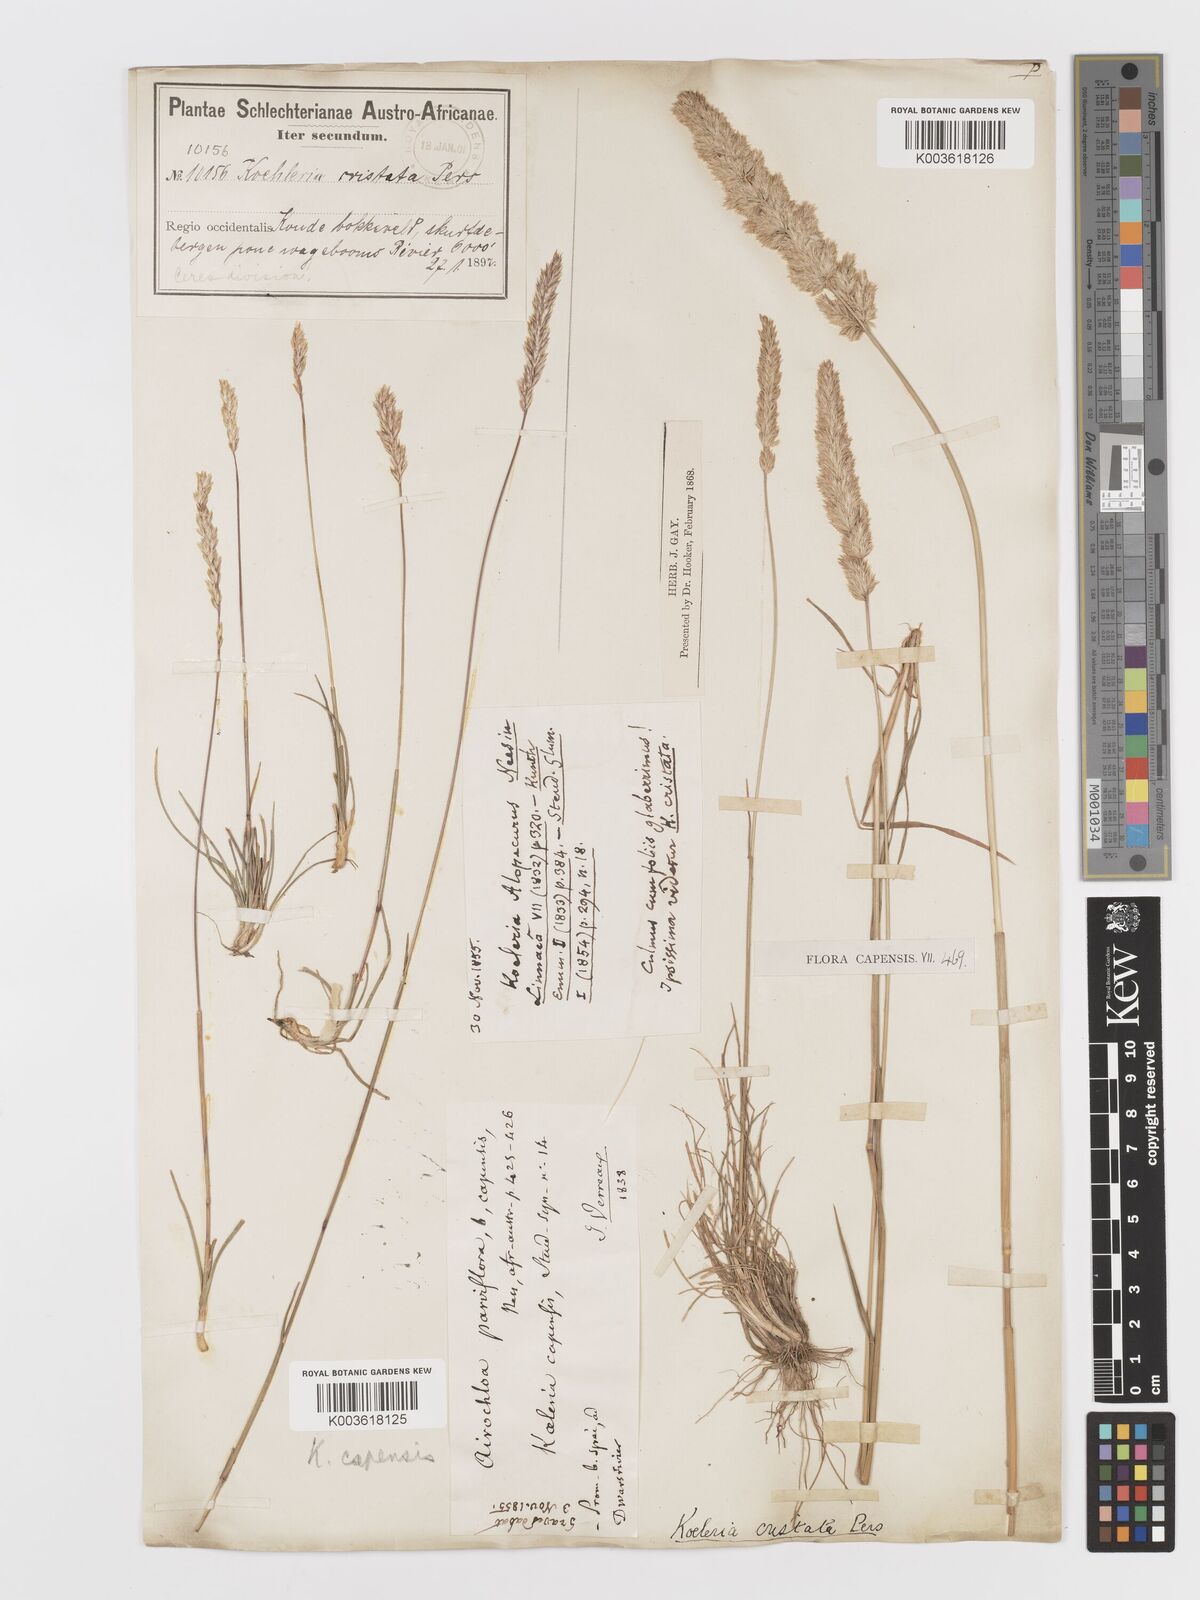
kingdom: Plantae
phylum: Tracheophyta
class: Liliopsida
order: Poales
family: Poaceae
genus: Koeleria
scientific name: Koeleria capensis
